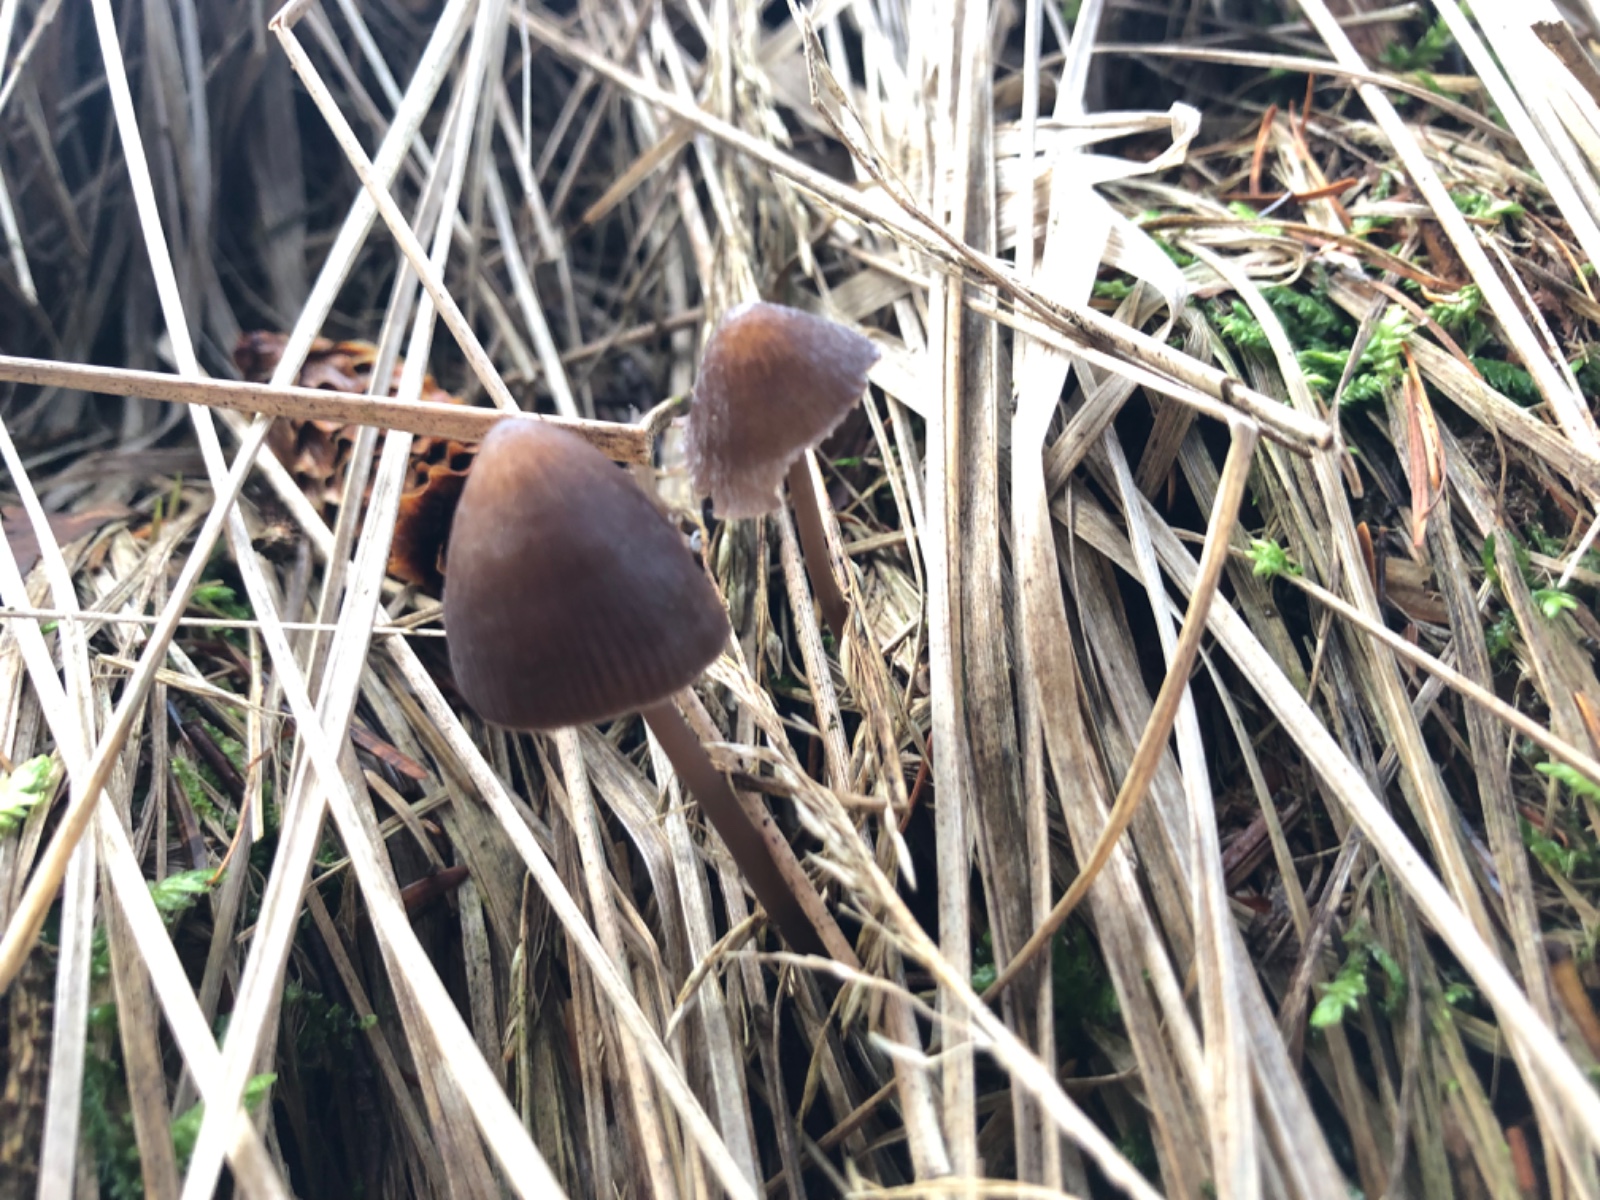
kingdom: Fungi
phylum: Basidiomycota
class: Agaricomycetes
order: Agaricales
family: Mycenaceae
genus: Mycena
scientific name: Mycena silvae-nigrae
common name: tidlig huesvamp
